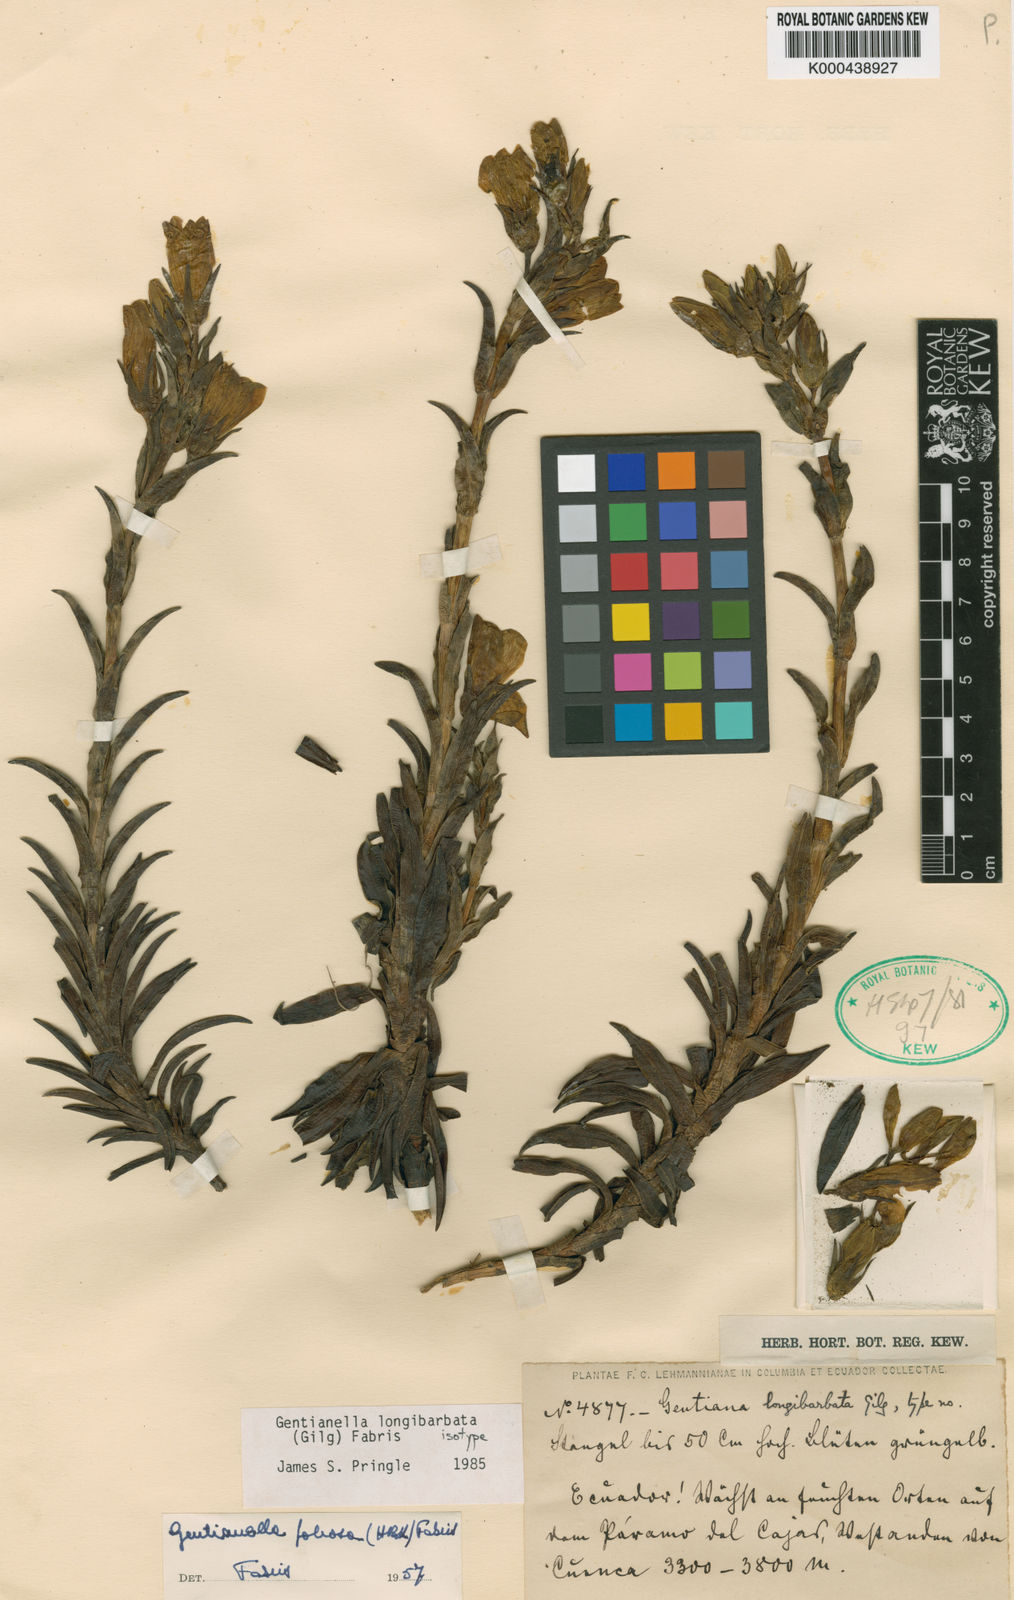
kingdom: Plantae
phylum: Tracheophyta
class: Magnoliopsida
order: Gentianales
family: Gentianaceae
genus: Gentianella
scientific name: Gentianella longibarbata
